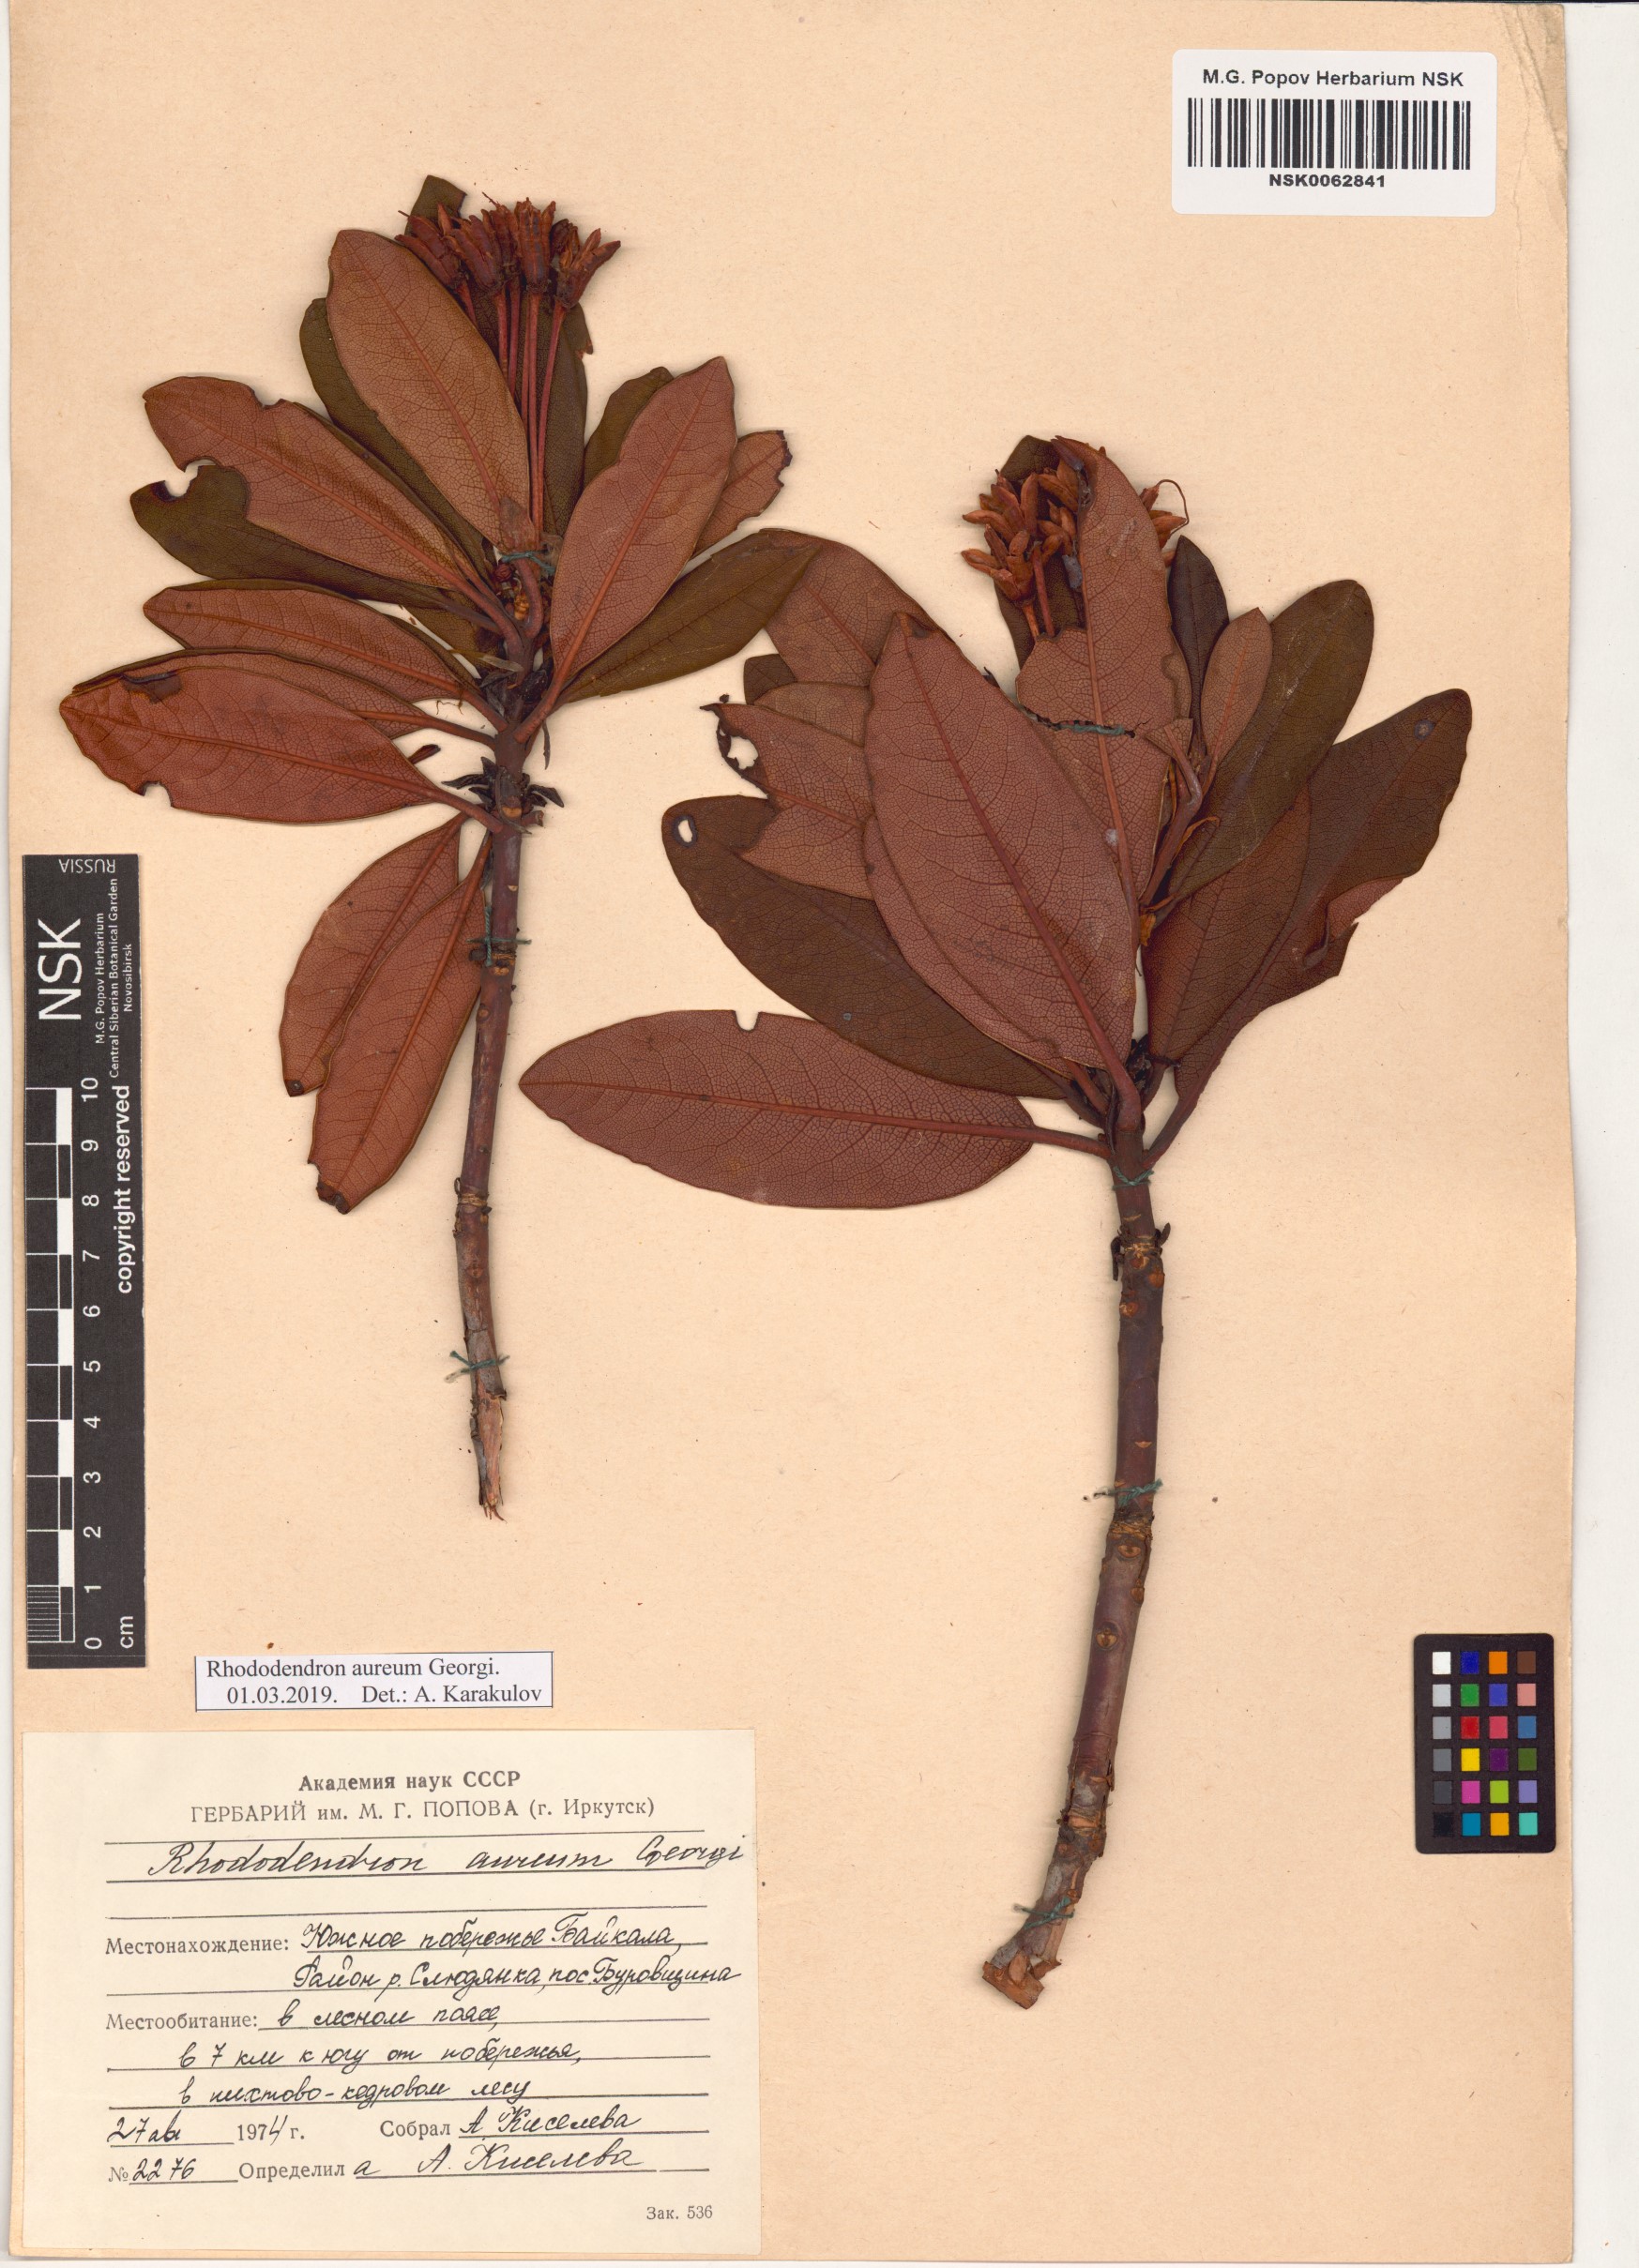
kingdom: Plantae
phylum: Tracheophyta
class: Magnoliopsida
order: Ericales
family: Ericaceae
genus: Rhododendron
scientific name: Rhododendron aureum
